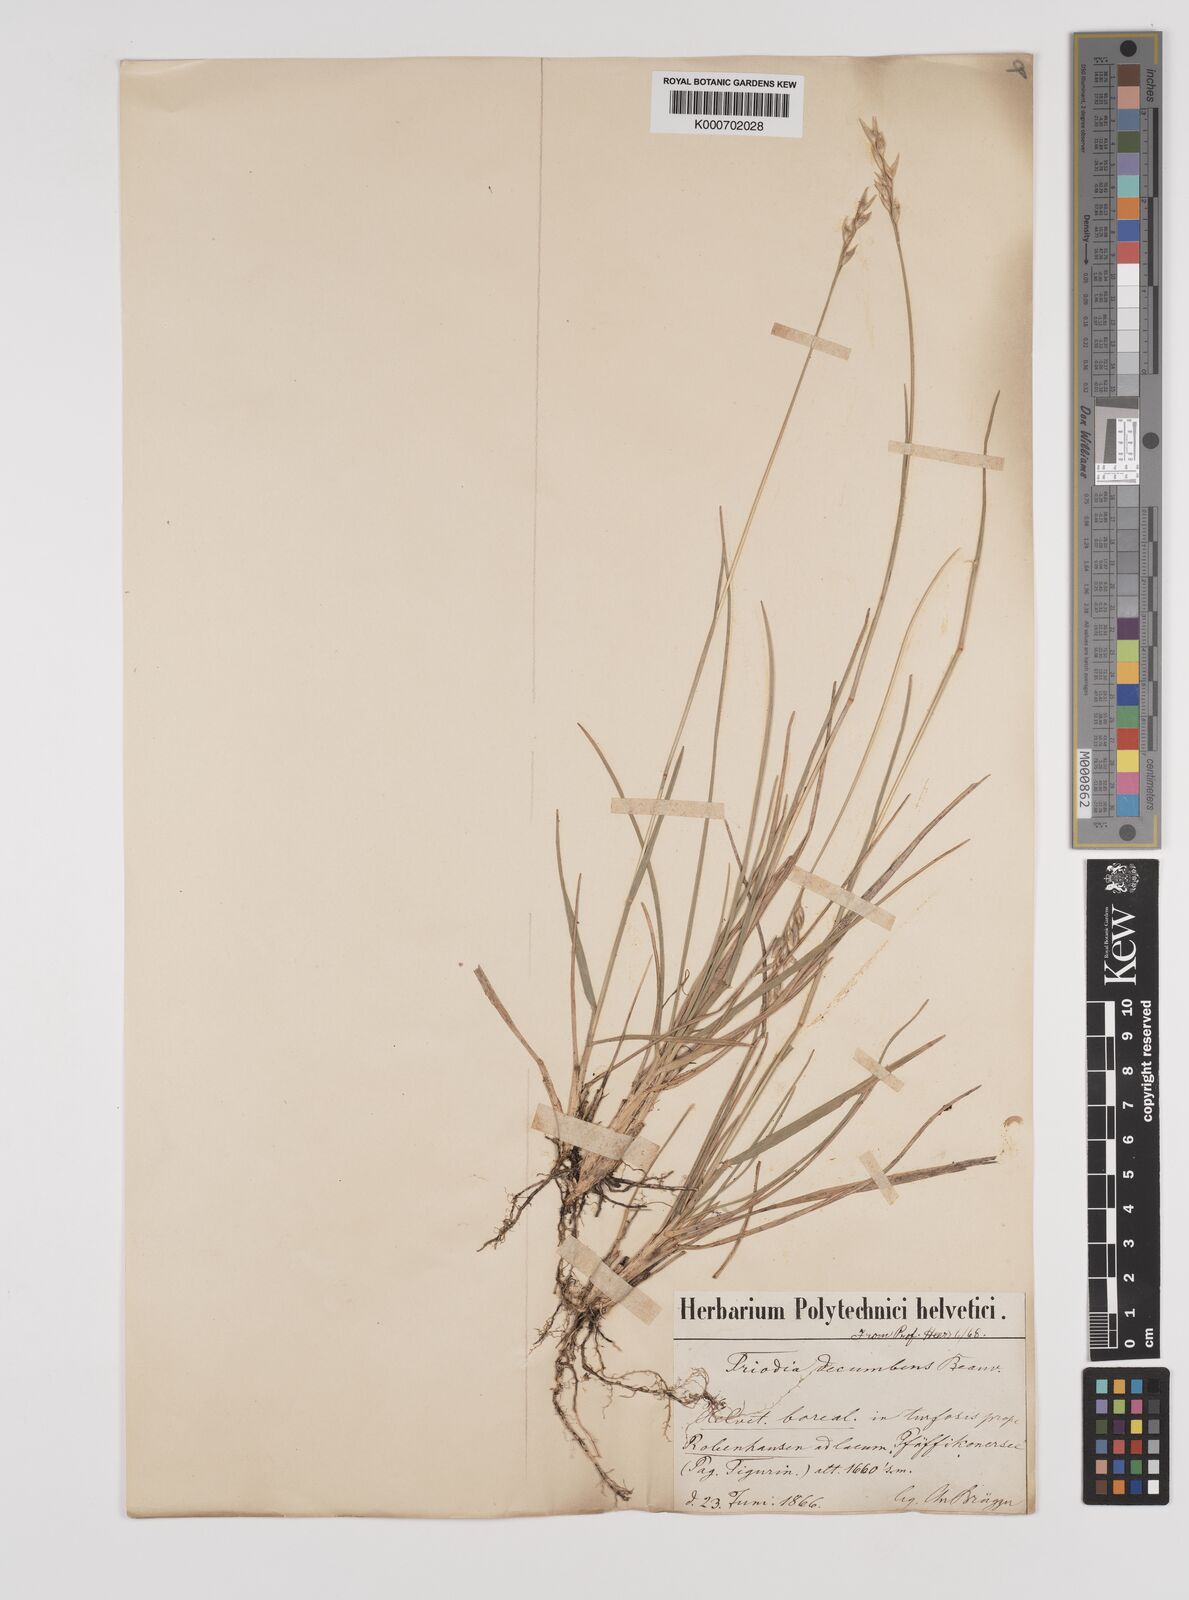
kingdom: Plantae
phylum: Tracheophyta
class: Liliopsida
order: Poales
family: Poaceae
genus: Danthonia
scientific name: Danthonia decumbens
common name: Common heathgrass
